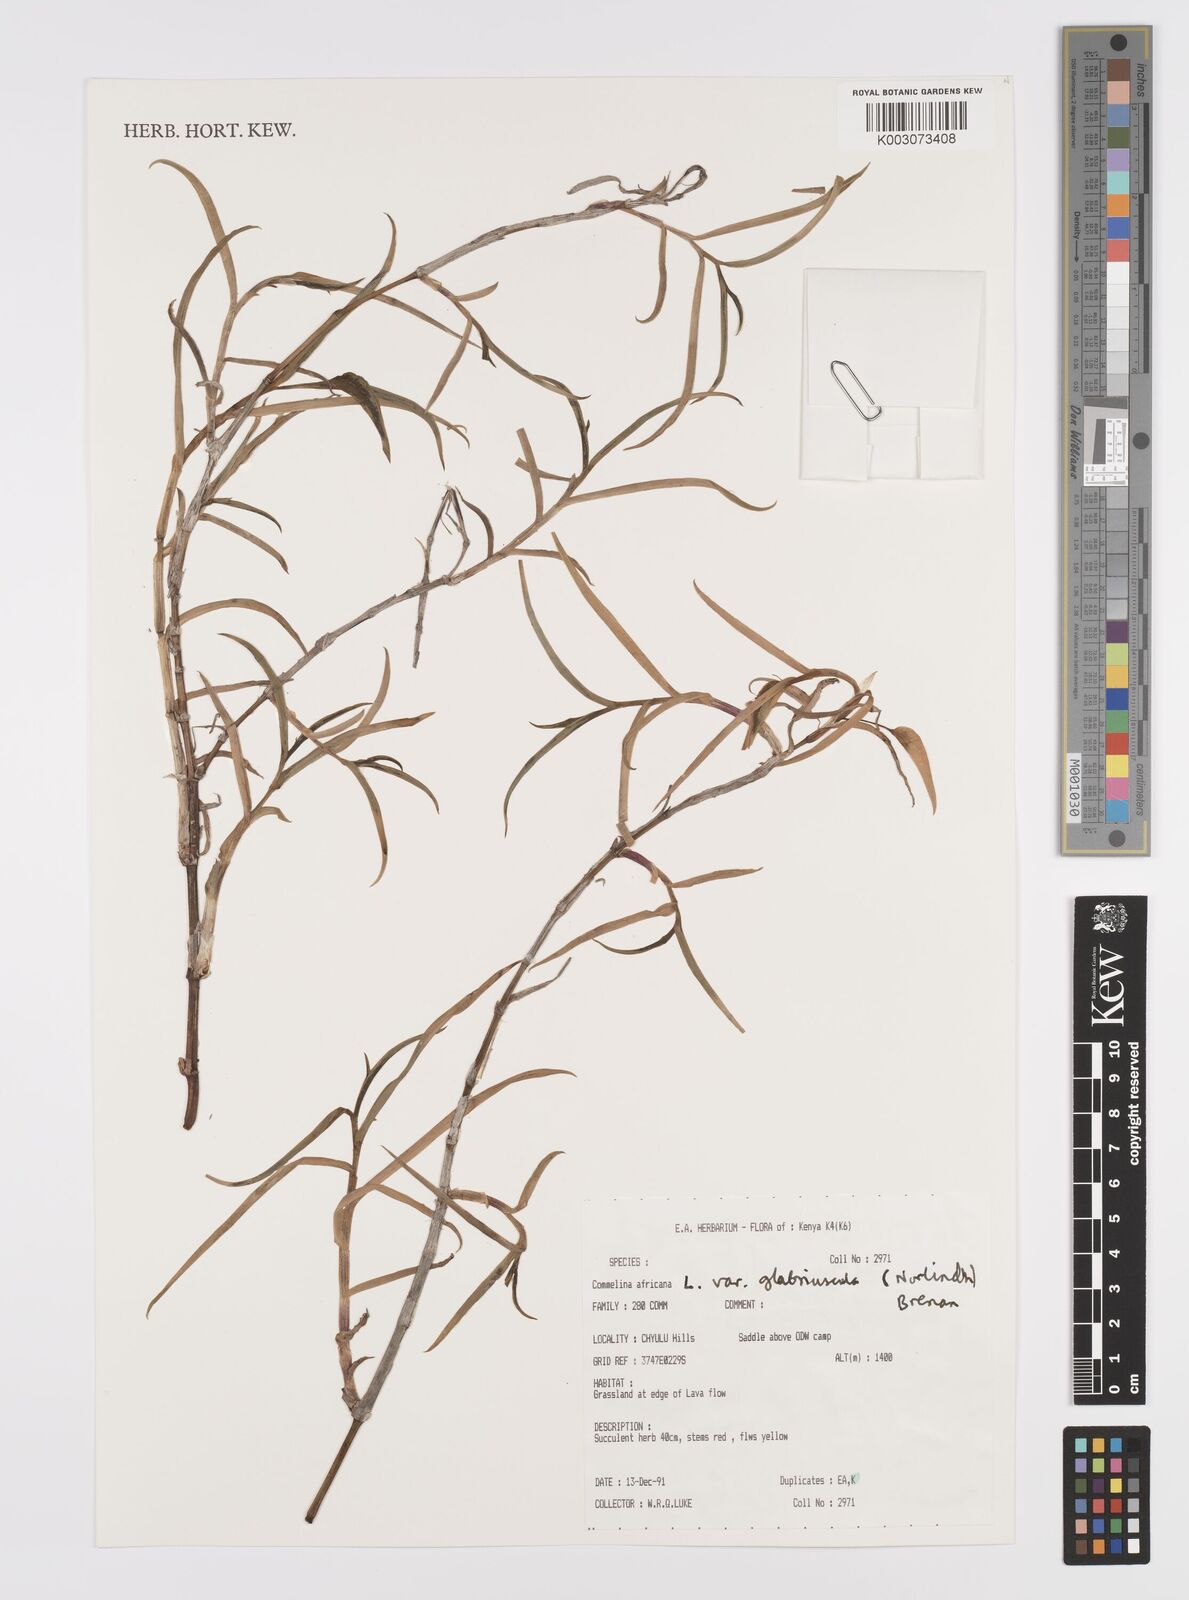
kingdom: Plantae
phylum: Tracheophyta
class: Liliopsida
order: Commelinales
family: Commelinaceae
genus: Commelina
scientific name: Commelina africana
